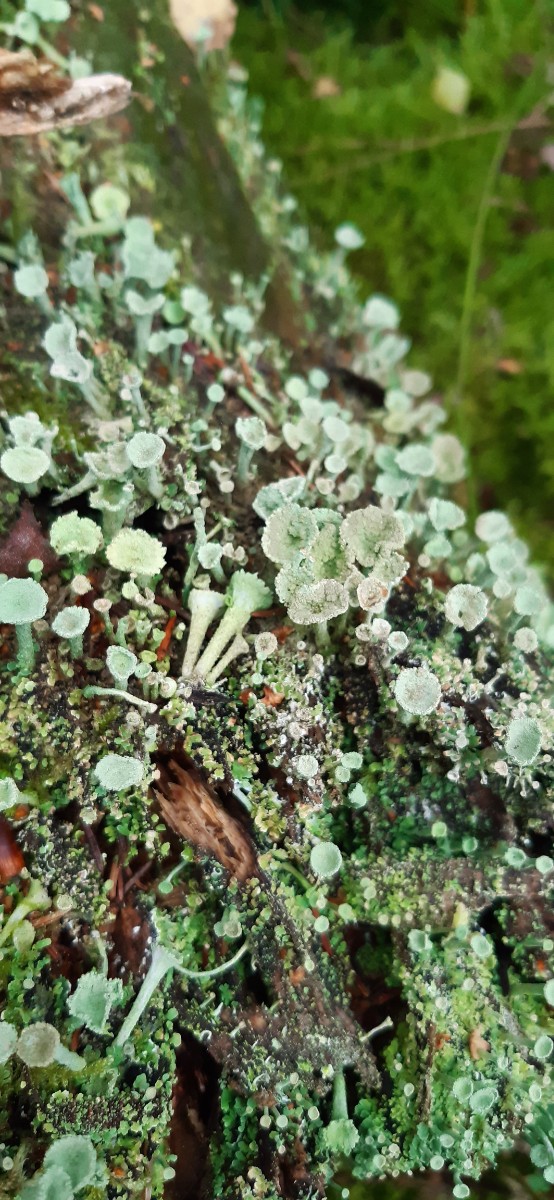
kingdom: Fungi
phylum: Ascomycota
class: Lecanoromycetes
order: Lecanorales
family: Cladoniaceae
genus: Cladonia
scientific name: Cladonia
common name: brungrøn bægerlav
